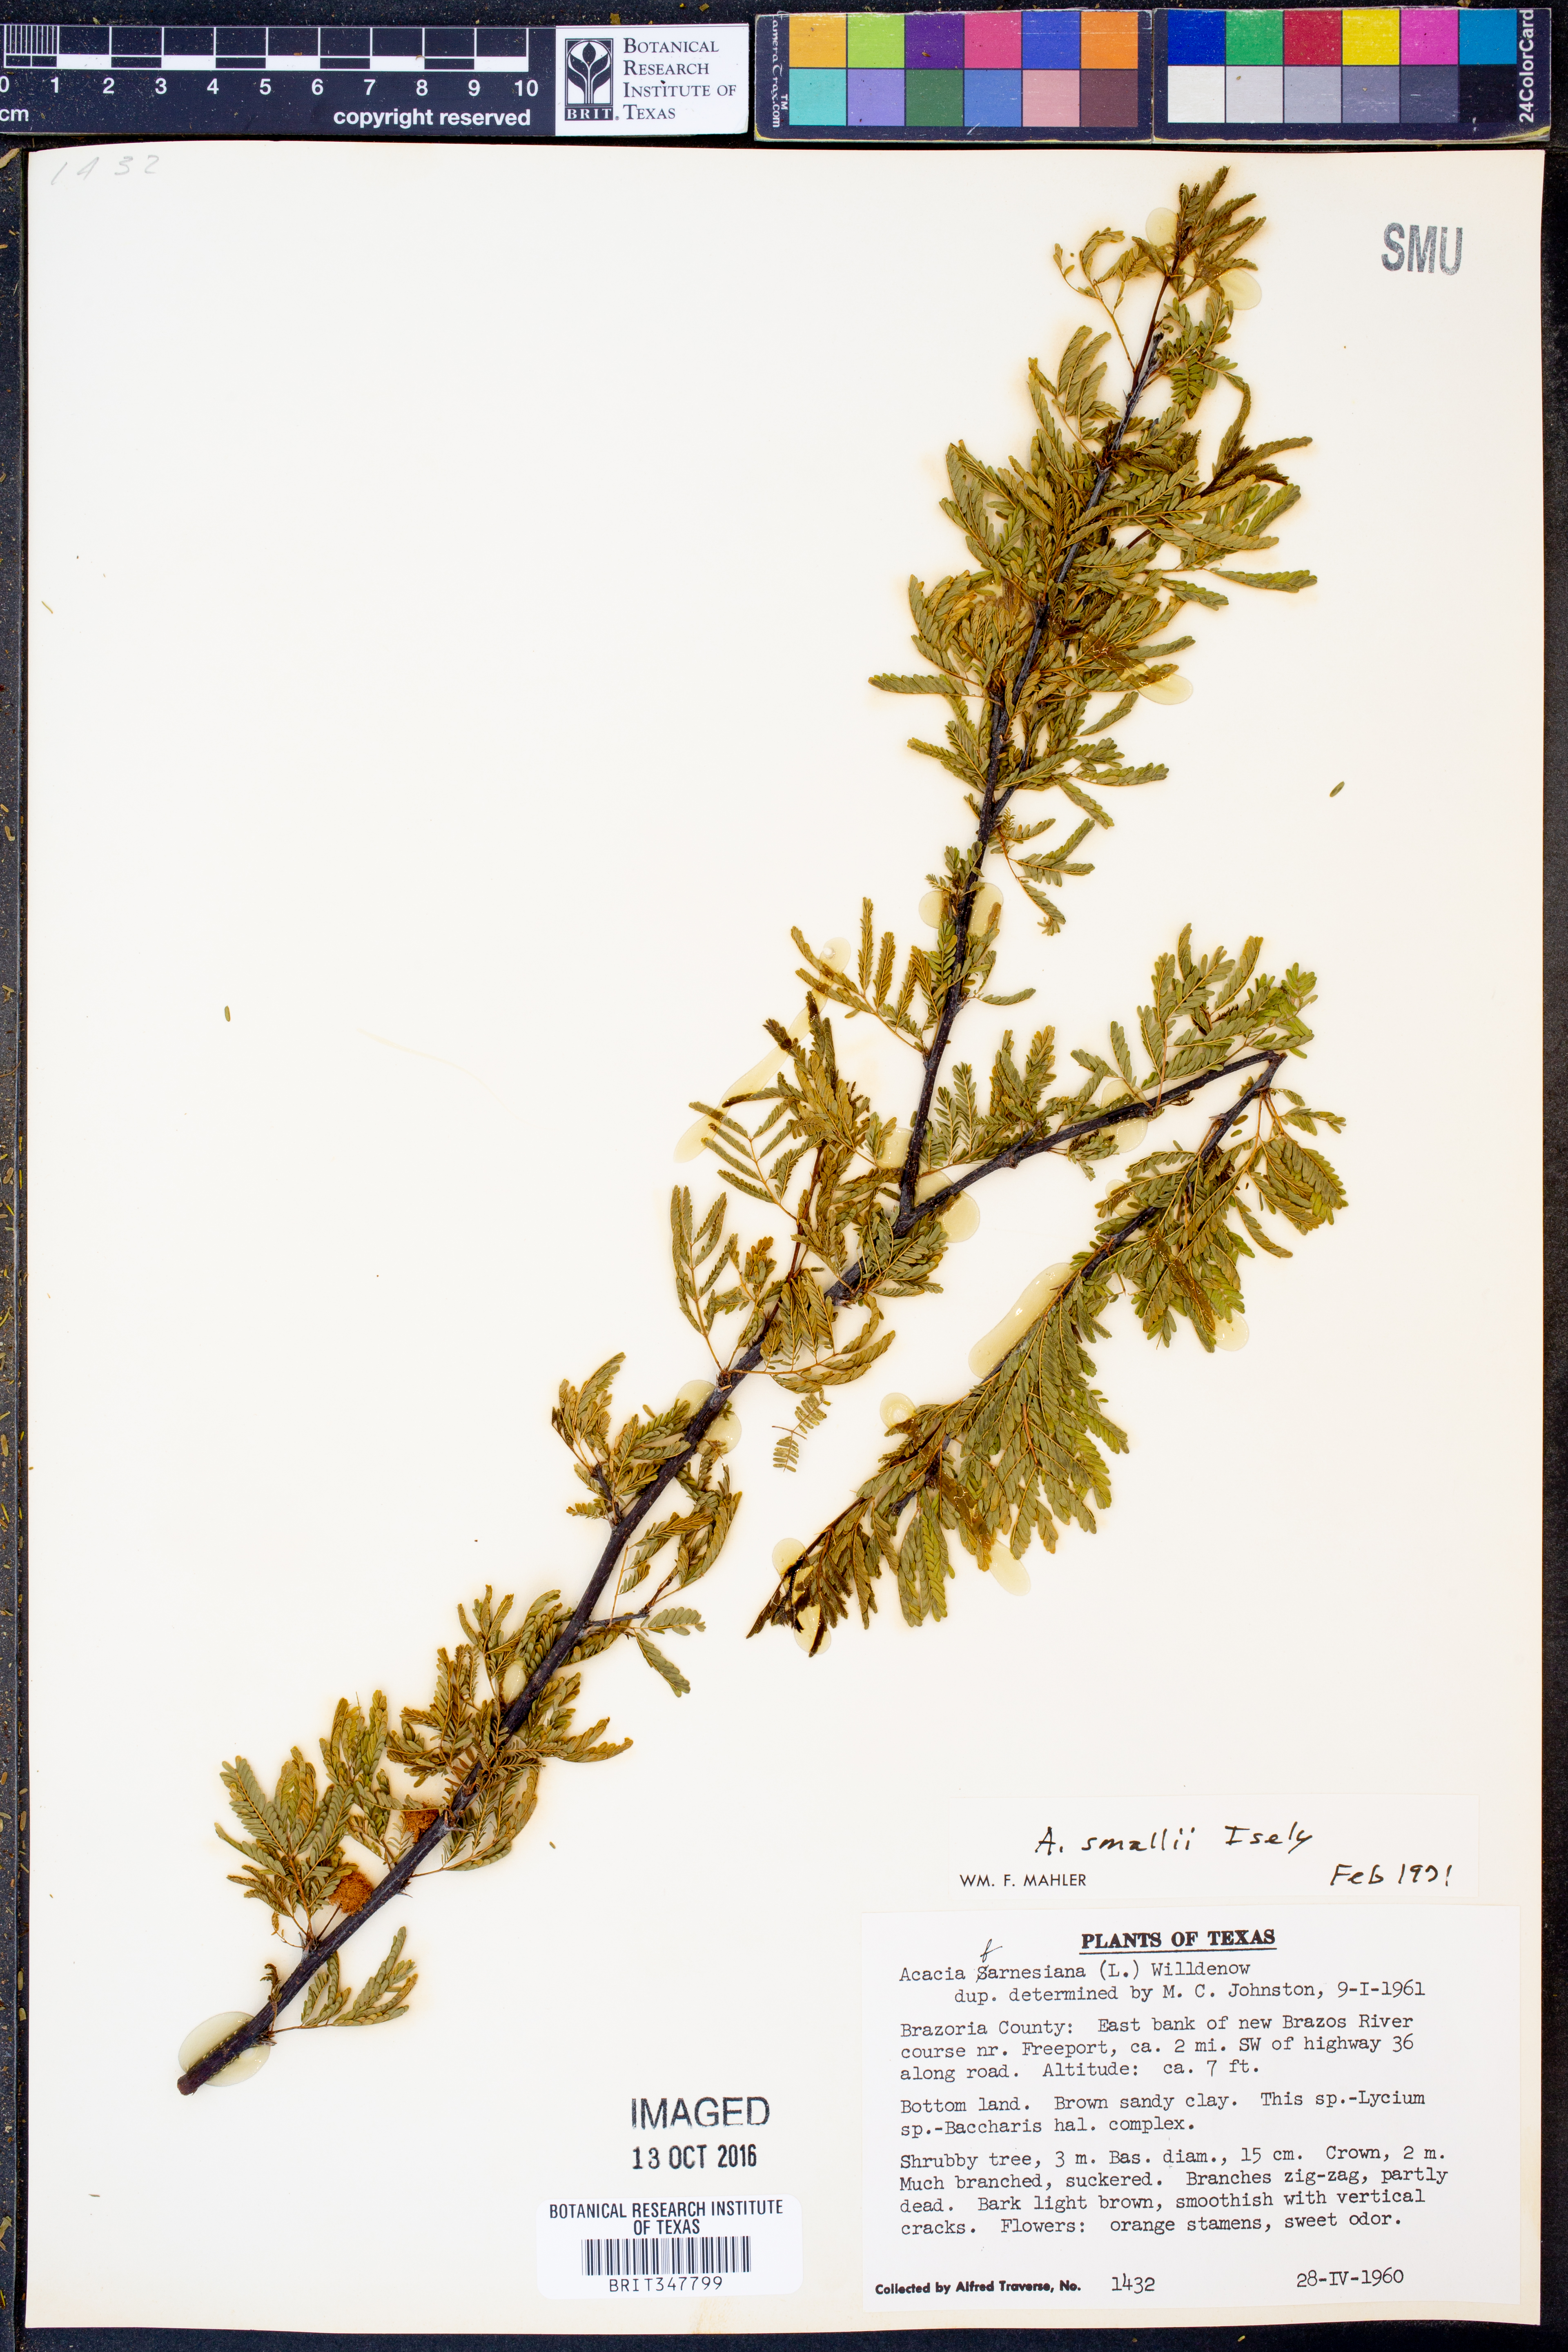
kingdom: Plantae
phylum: Tracheophyta
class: Magnoliopsida
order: Fabales
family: Fabaceae
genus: Vachellia
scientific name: Vachellia farnesiana
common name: Sweet acacia
